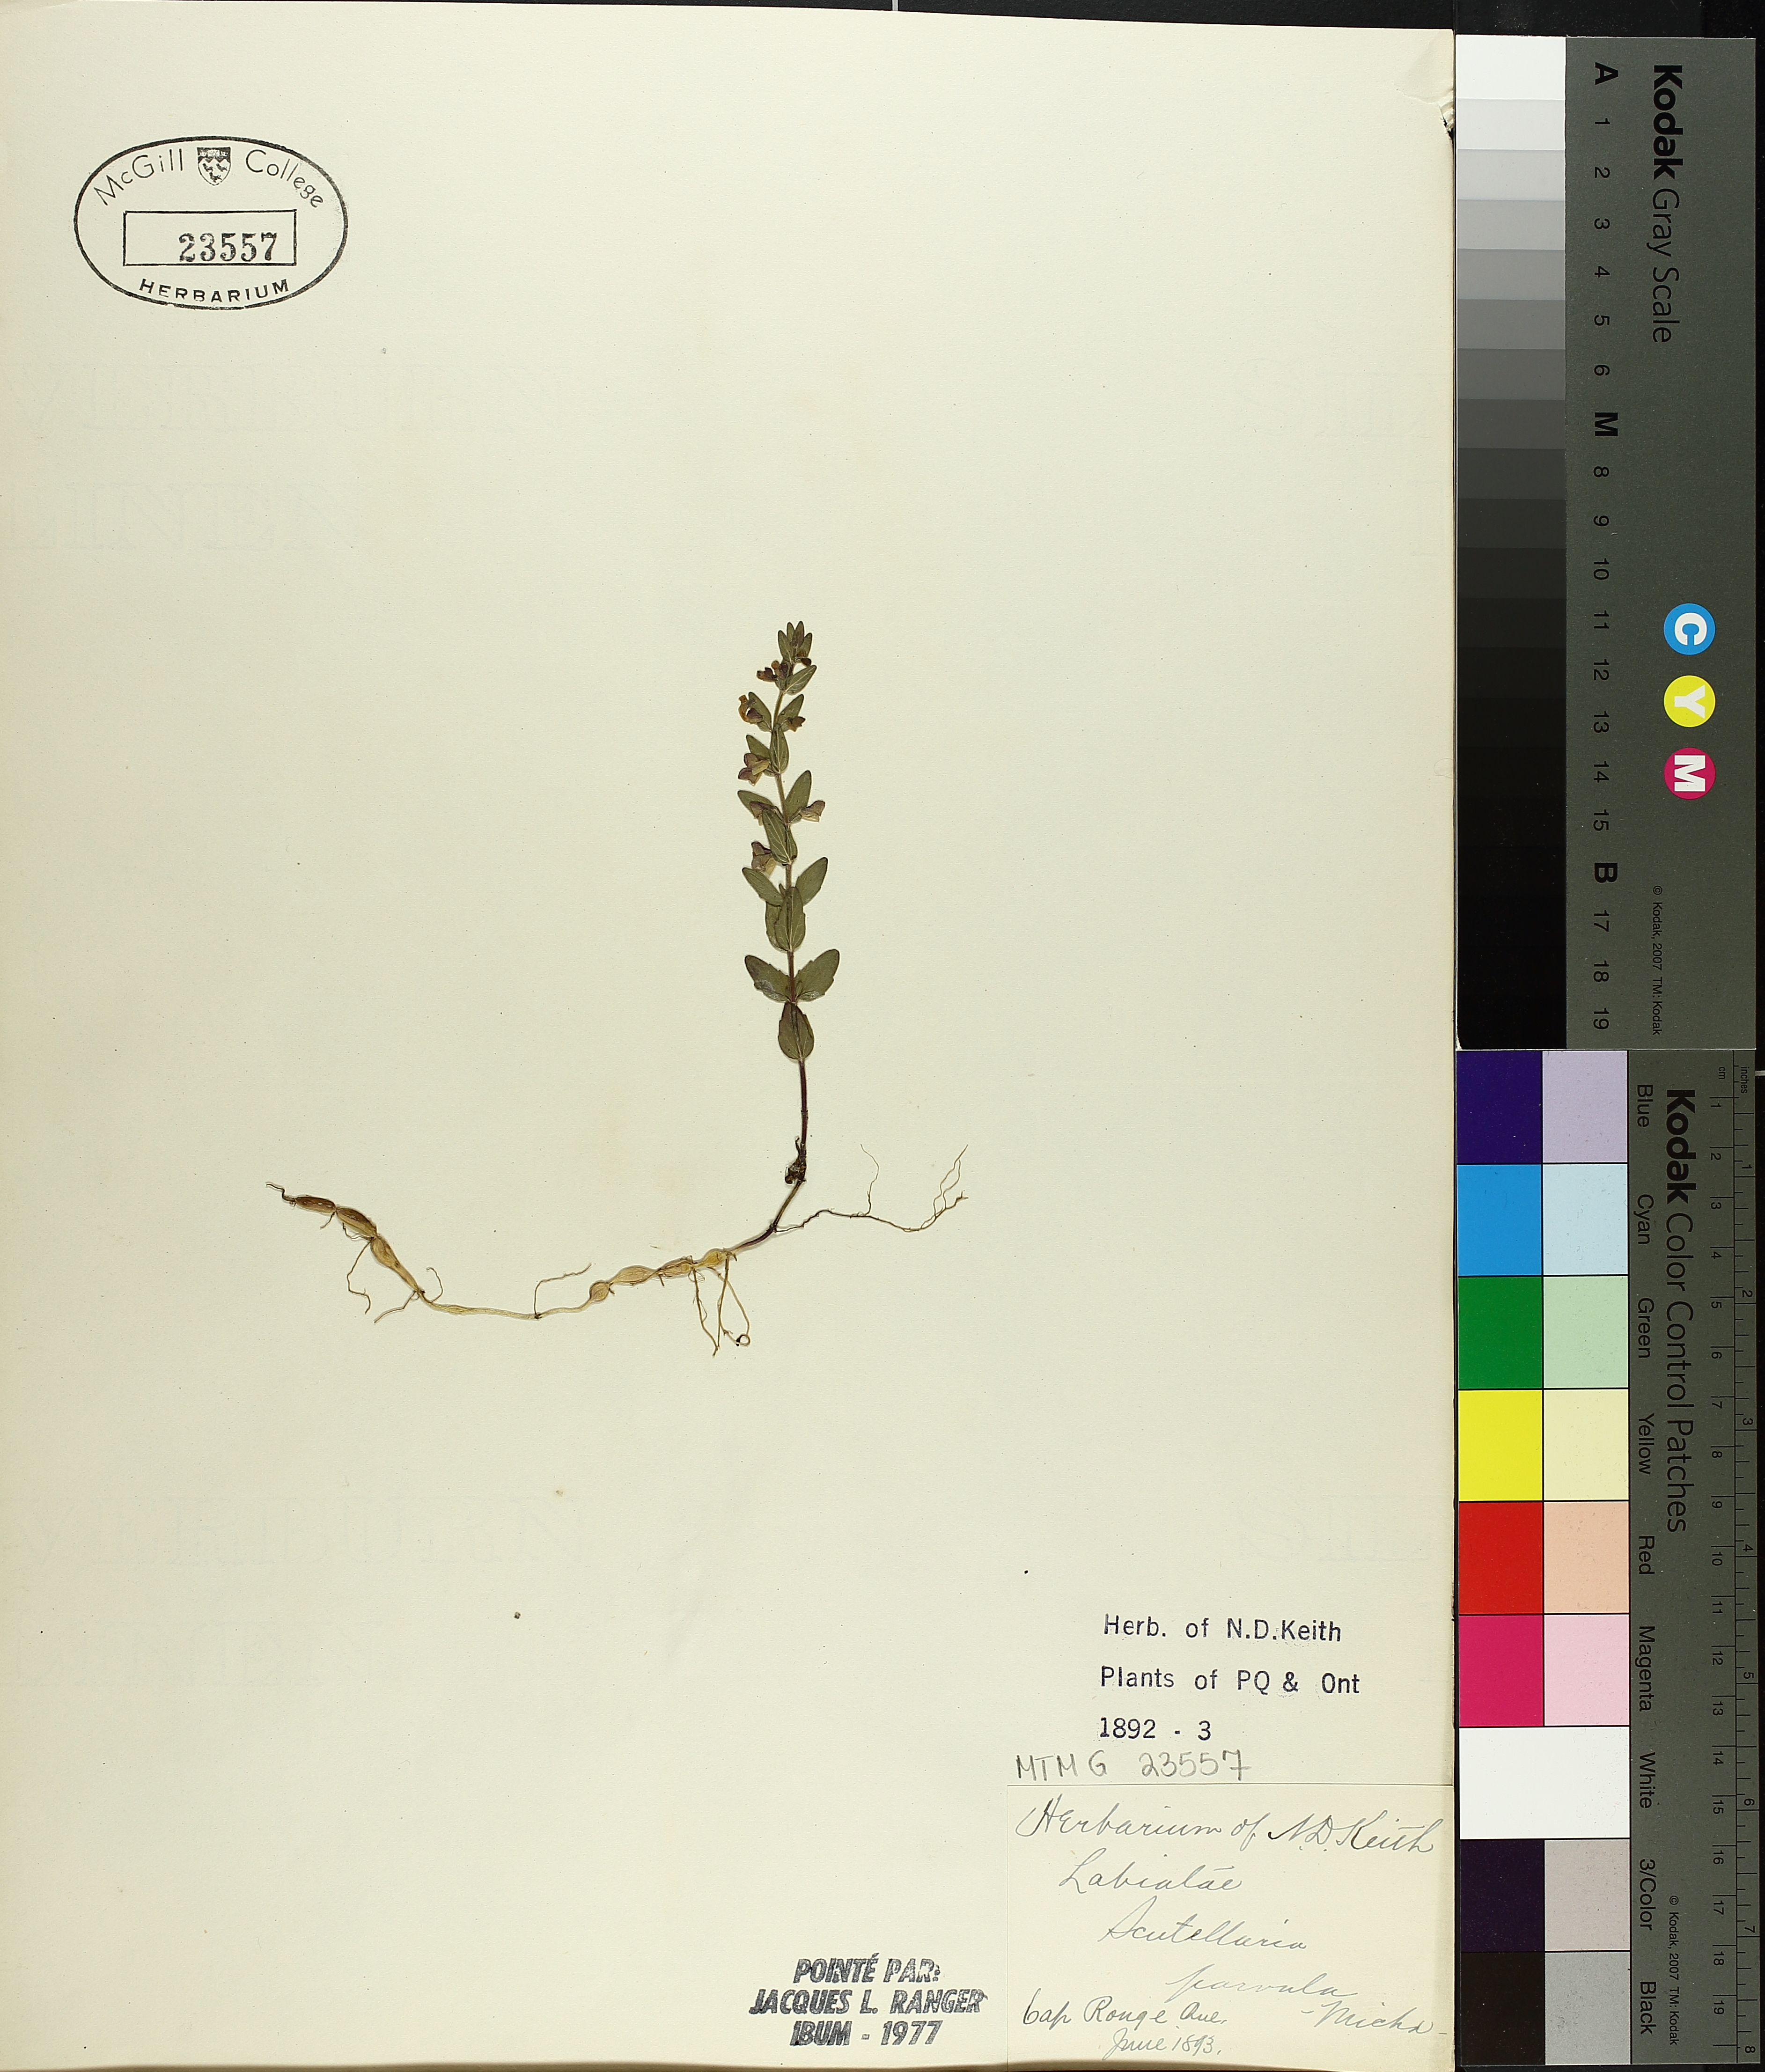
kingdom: Plantae
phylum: Tracheophyta
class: Magnoliopsida
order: Lamiales
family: Lamiaceae
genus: Scutellaria
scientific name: Scutellaria parvula
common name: Little scullcap
